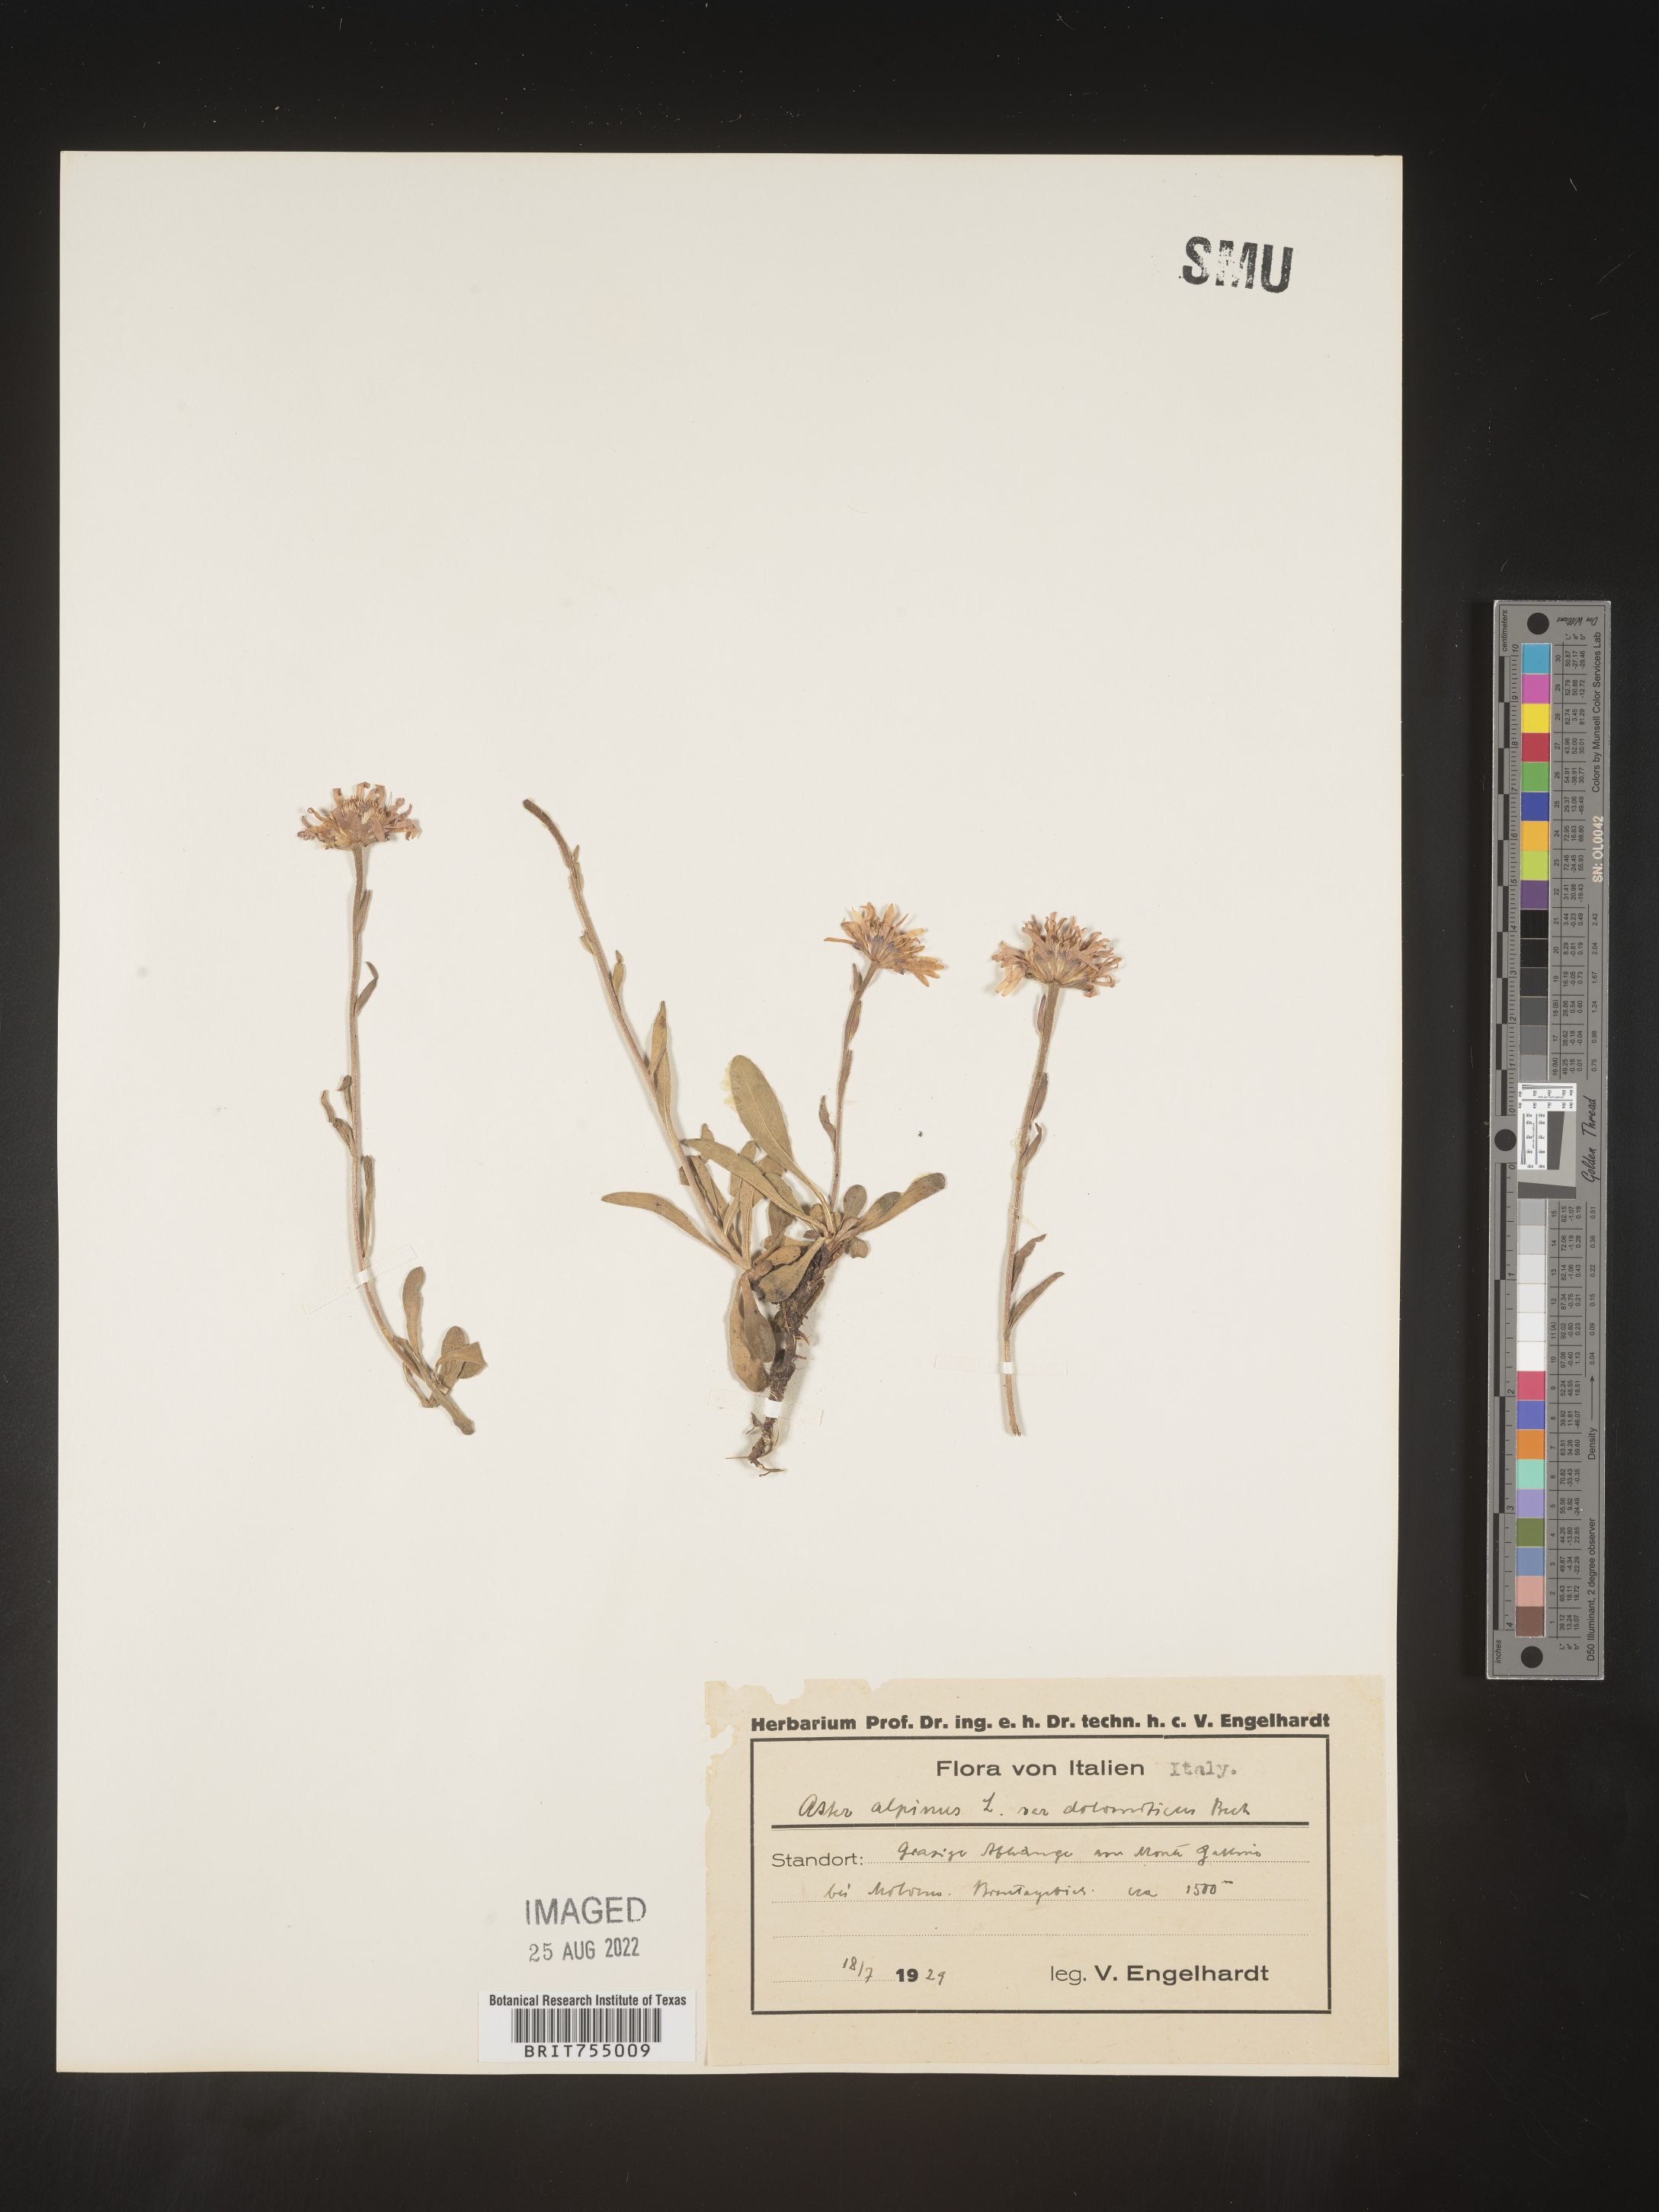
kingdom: Plantae
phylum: Tracheophyta
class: Magnoliopsida
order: Asterales
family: Asteraceae
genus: Symphyotrichum
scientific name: Symphyotrichum
